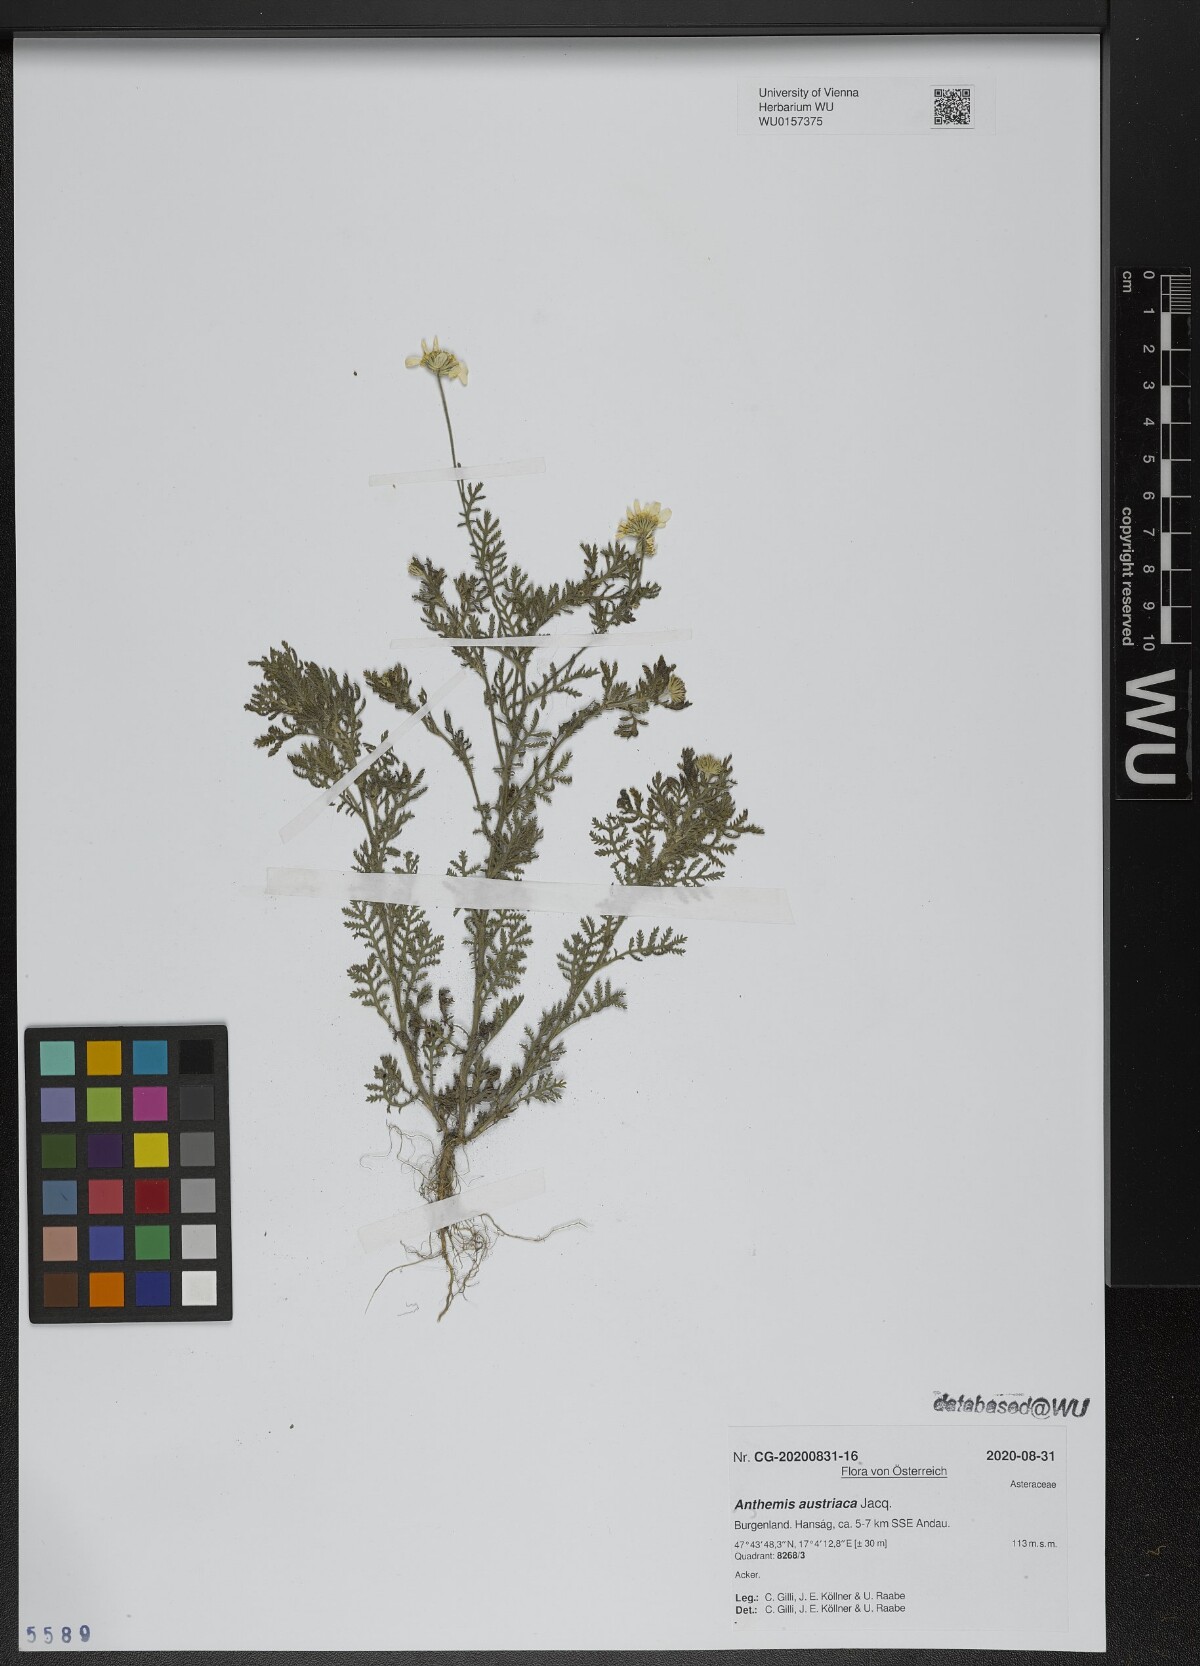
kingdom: Plantae
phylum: Tracheophyta
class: Magnoliopsida
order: Asterales
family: Asteraceae
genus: Cota
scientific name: Cota austriaca
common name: Austrian chamomile
